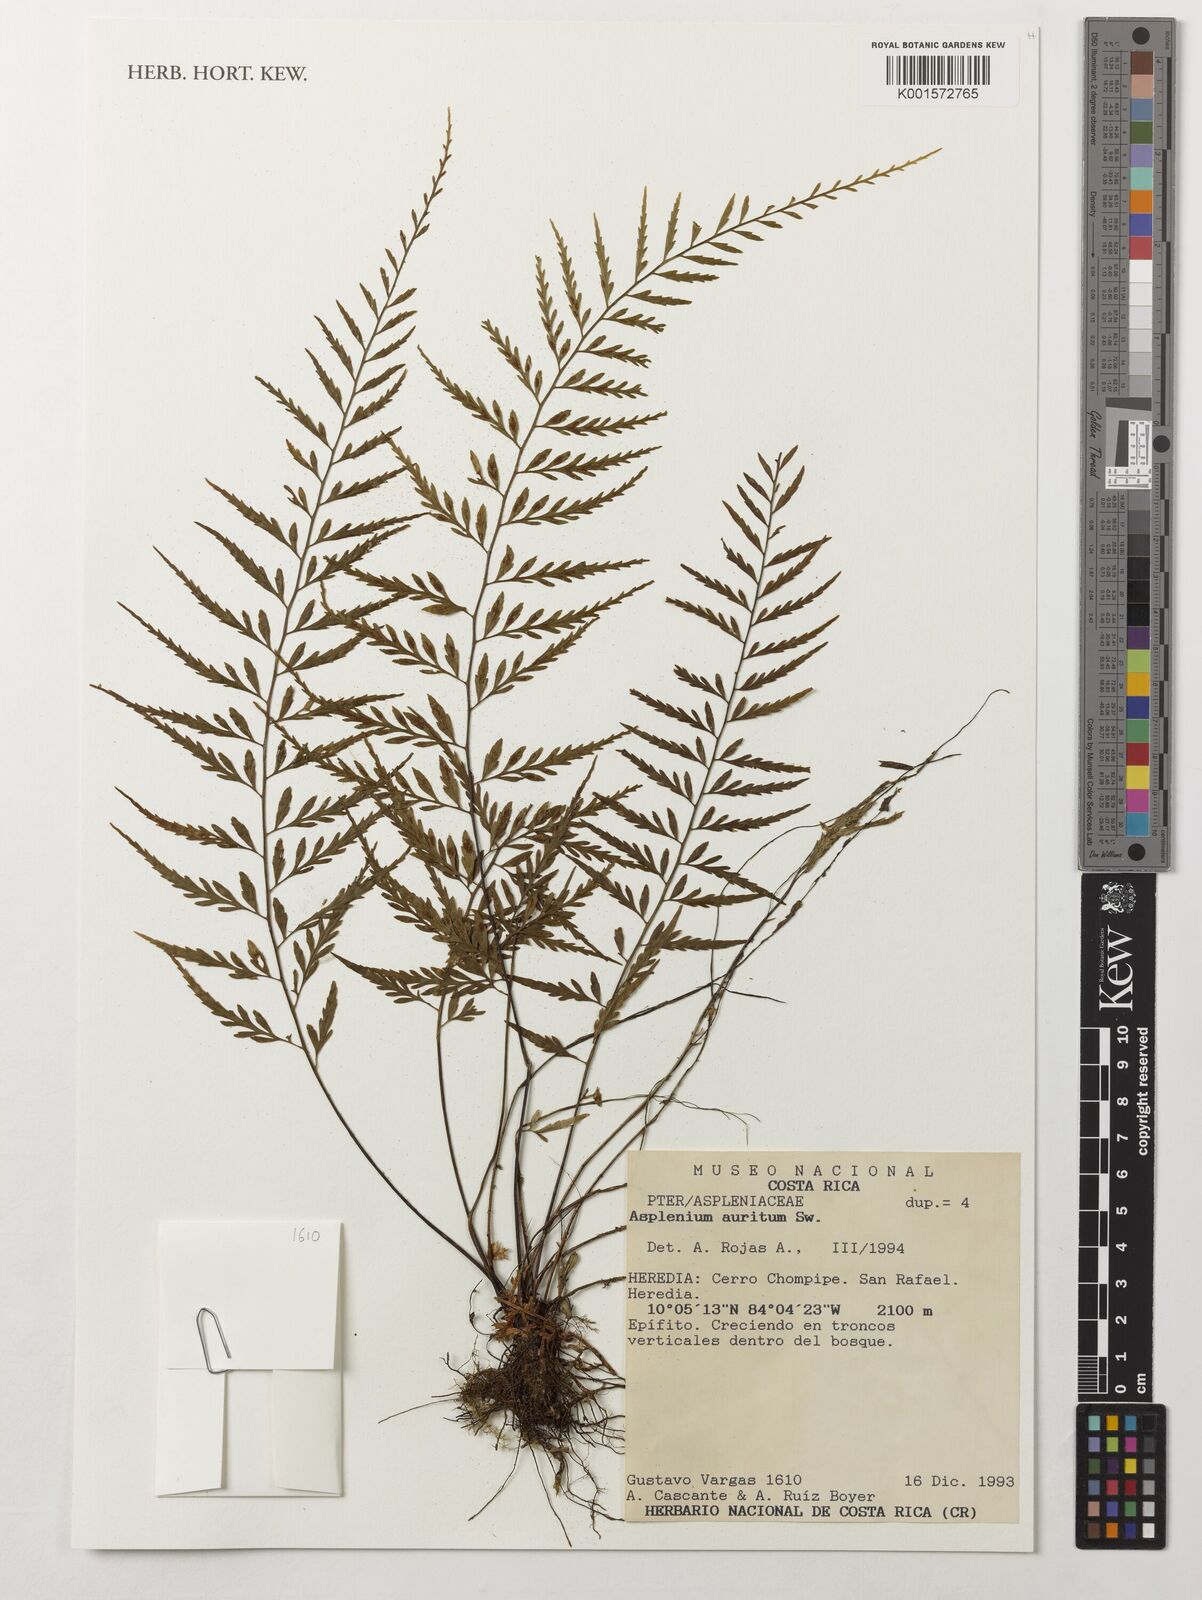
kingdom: Plantae
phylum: Tracheophyta
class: Polypodiopsida
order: Polypodiales
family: Aspleniaceae
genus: Asplenium
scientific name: Asplenium auritum
